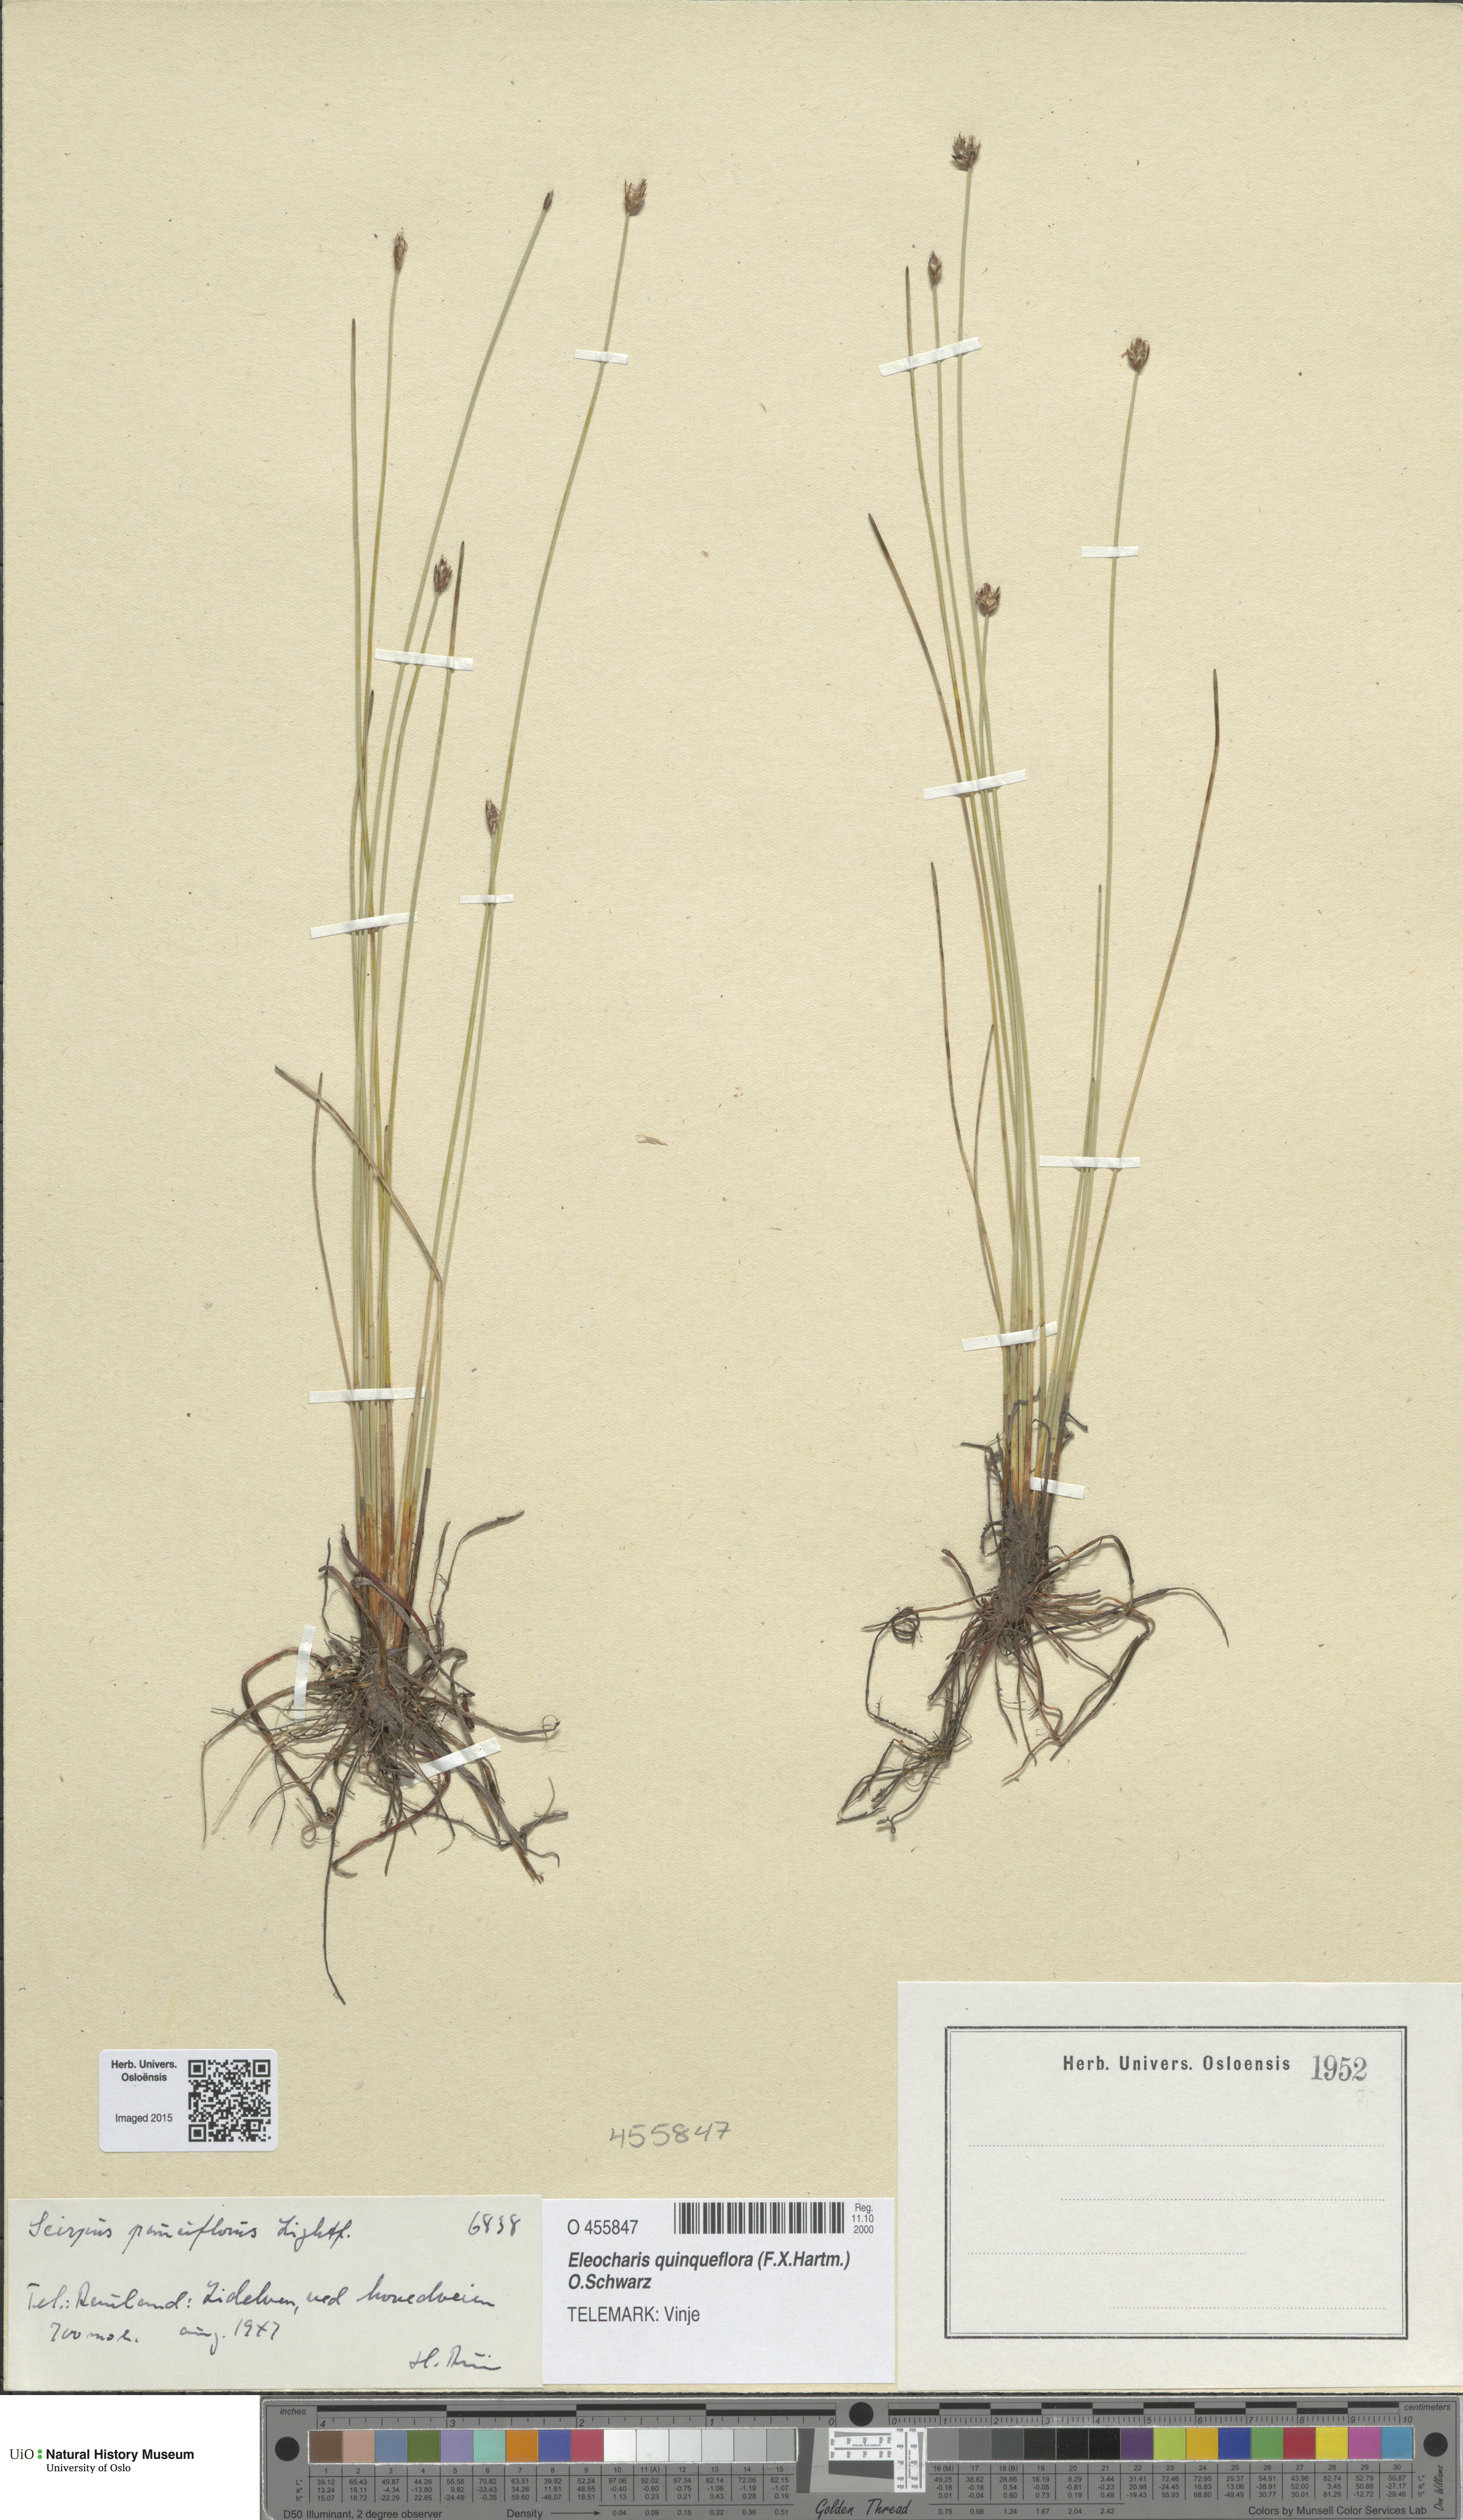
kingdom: Plantae
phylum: Tracheophyta
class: Liliopsida
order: Poales
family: Cyperaceae
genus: Eleocharis
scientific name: Eleocharis quinqueflora
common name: Few-flowered spike-rush
